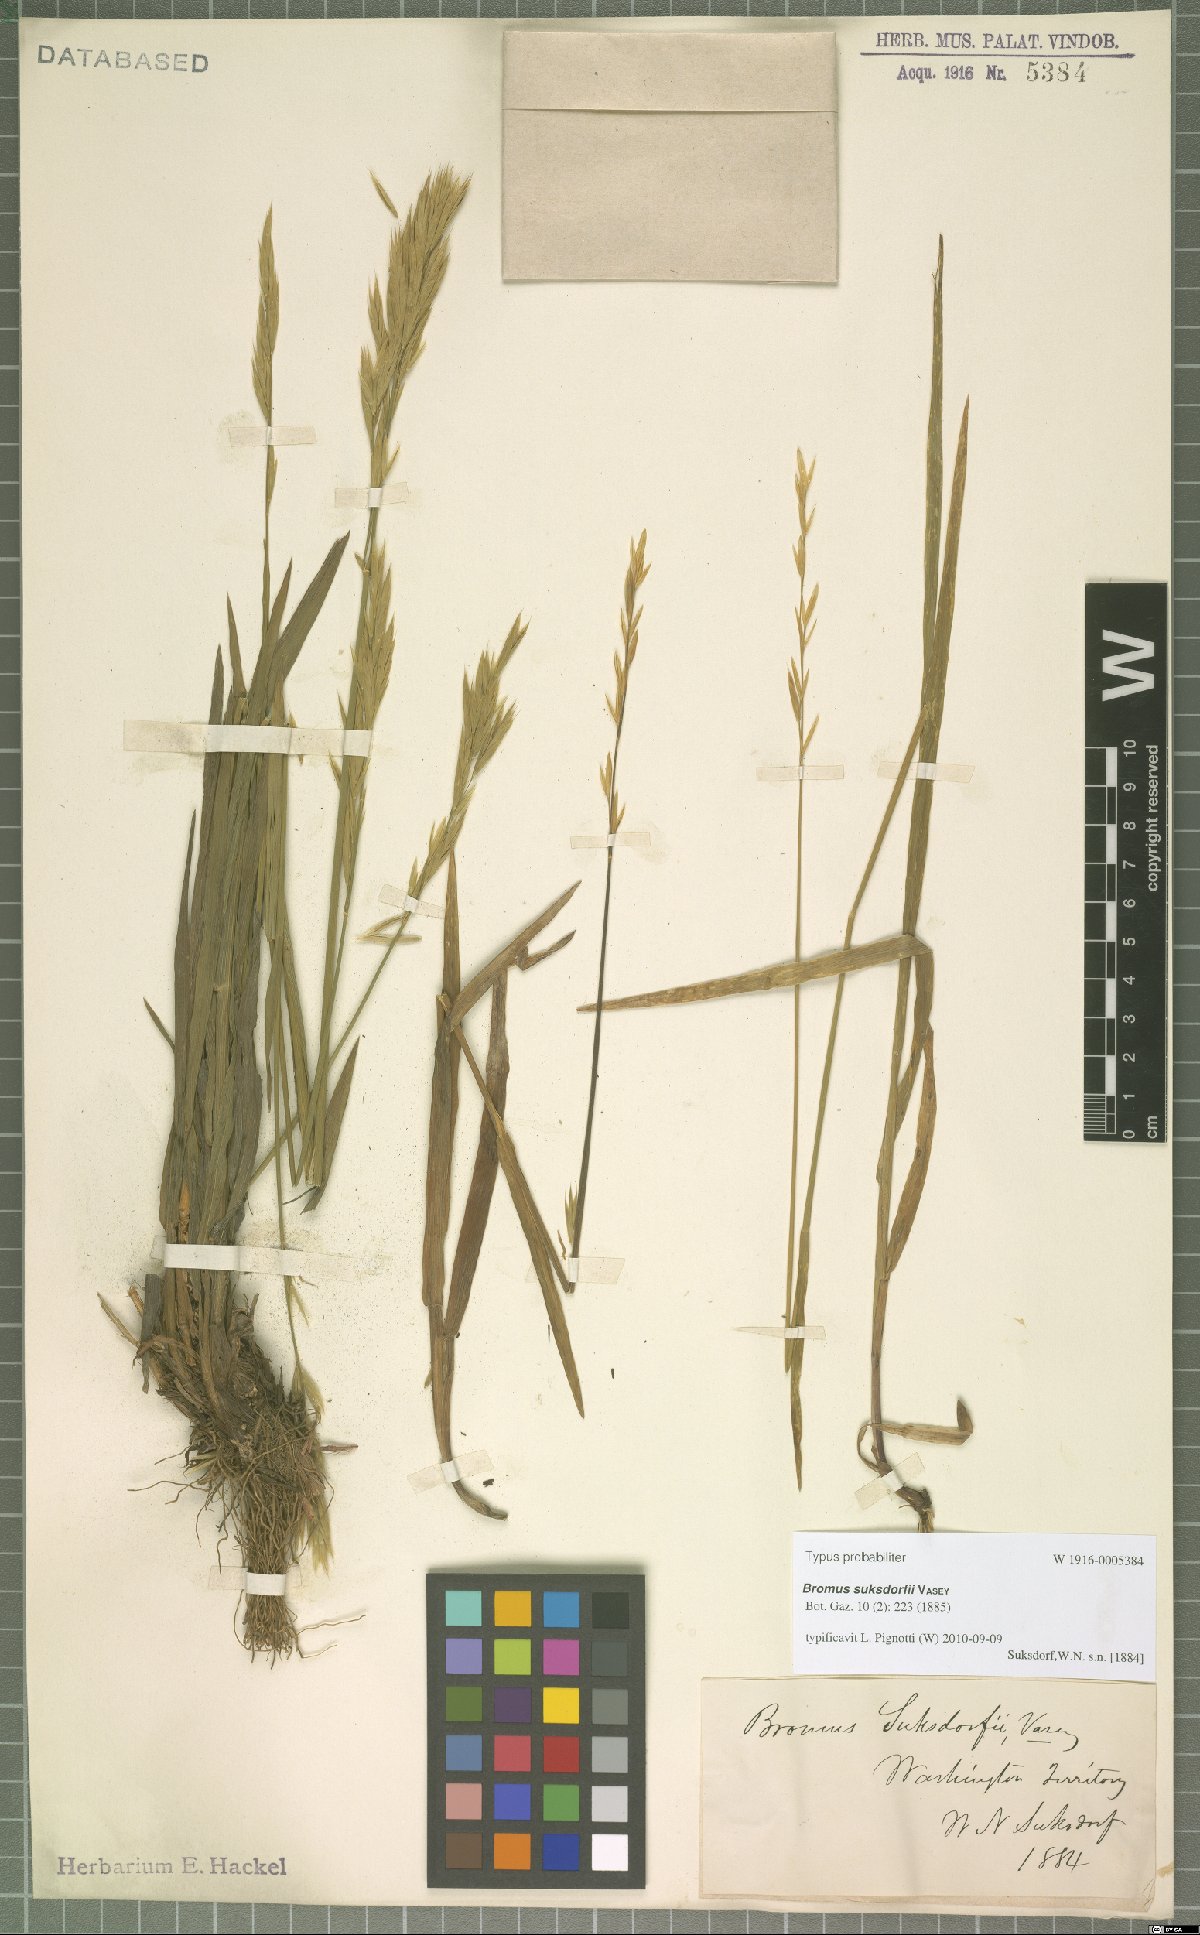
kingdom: Plantae
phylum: Tracheophyta
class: Liliopsida
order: Poales
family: Poaceae
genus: Bromus
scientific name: Bromus suksdorfii
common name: Suksdorf's brome
